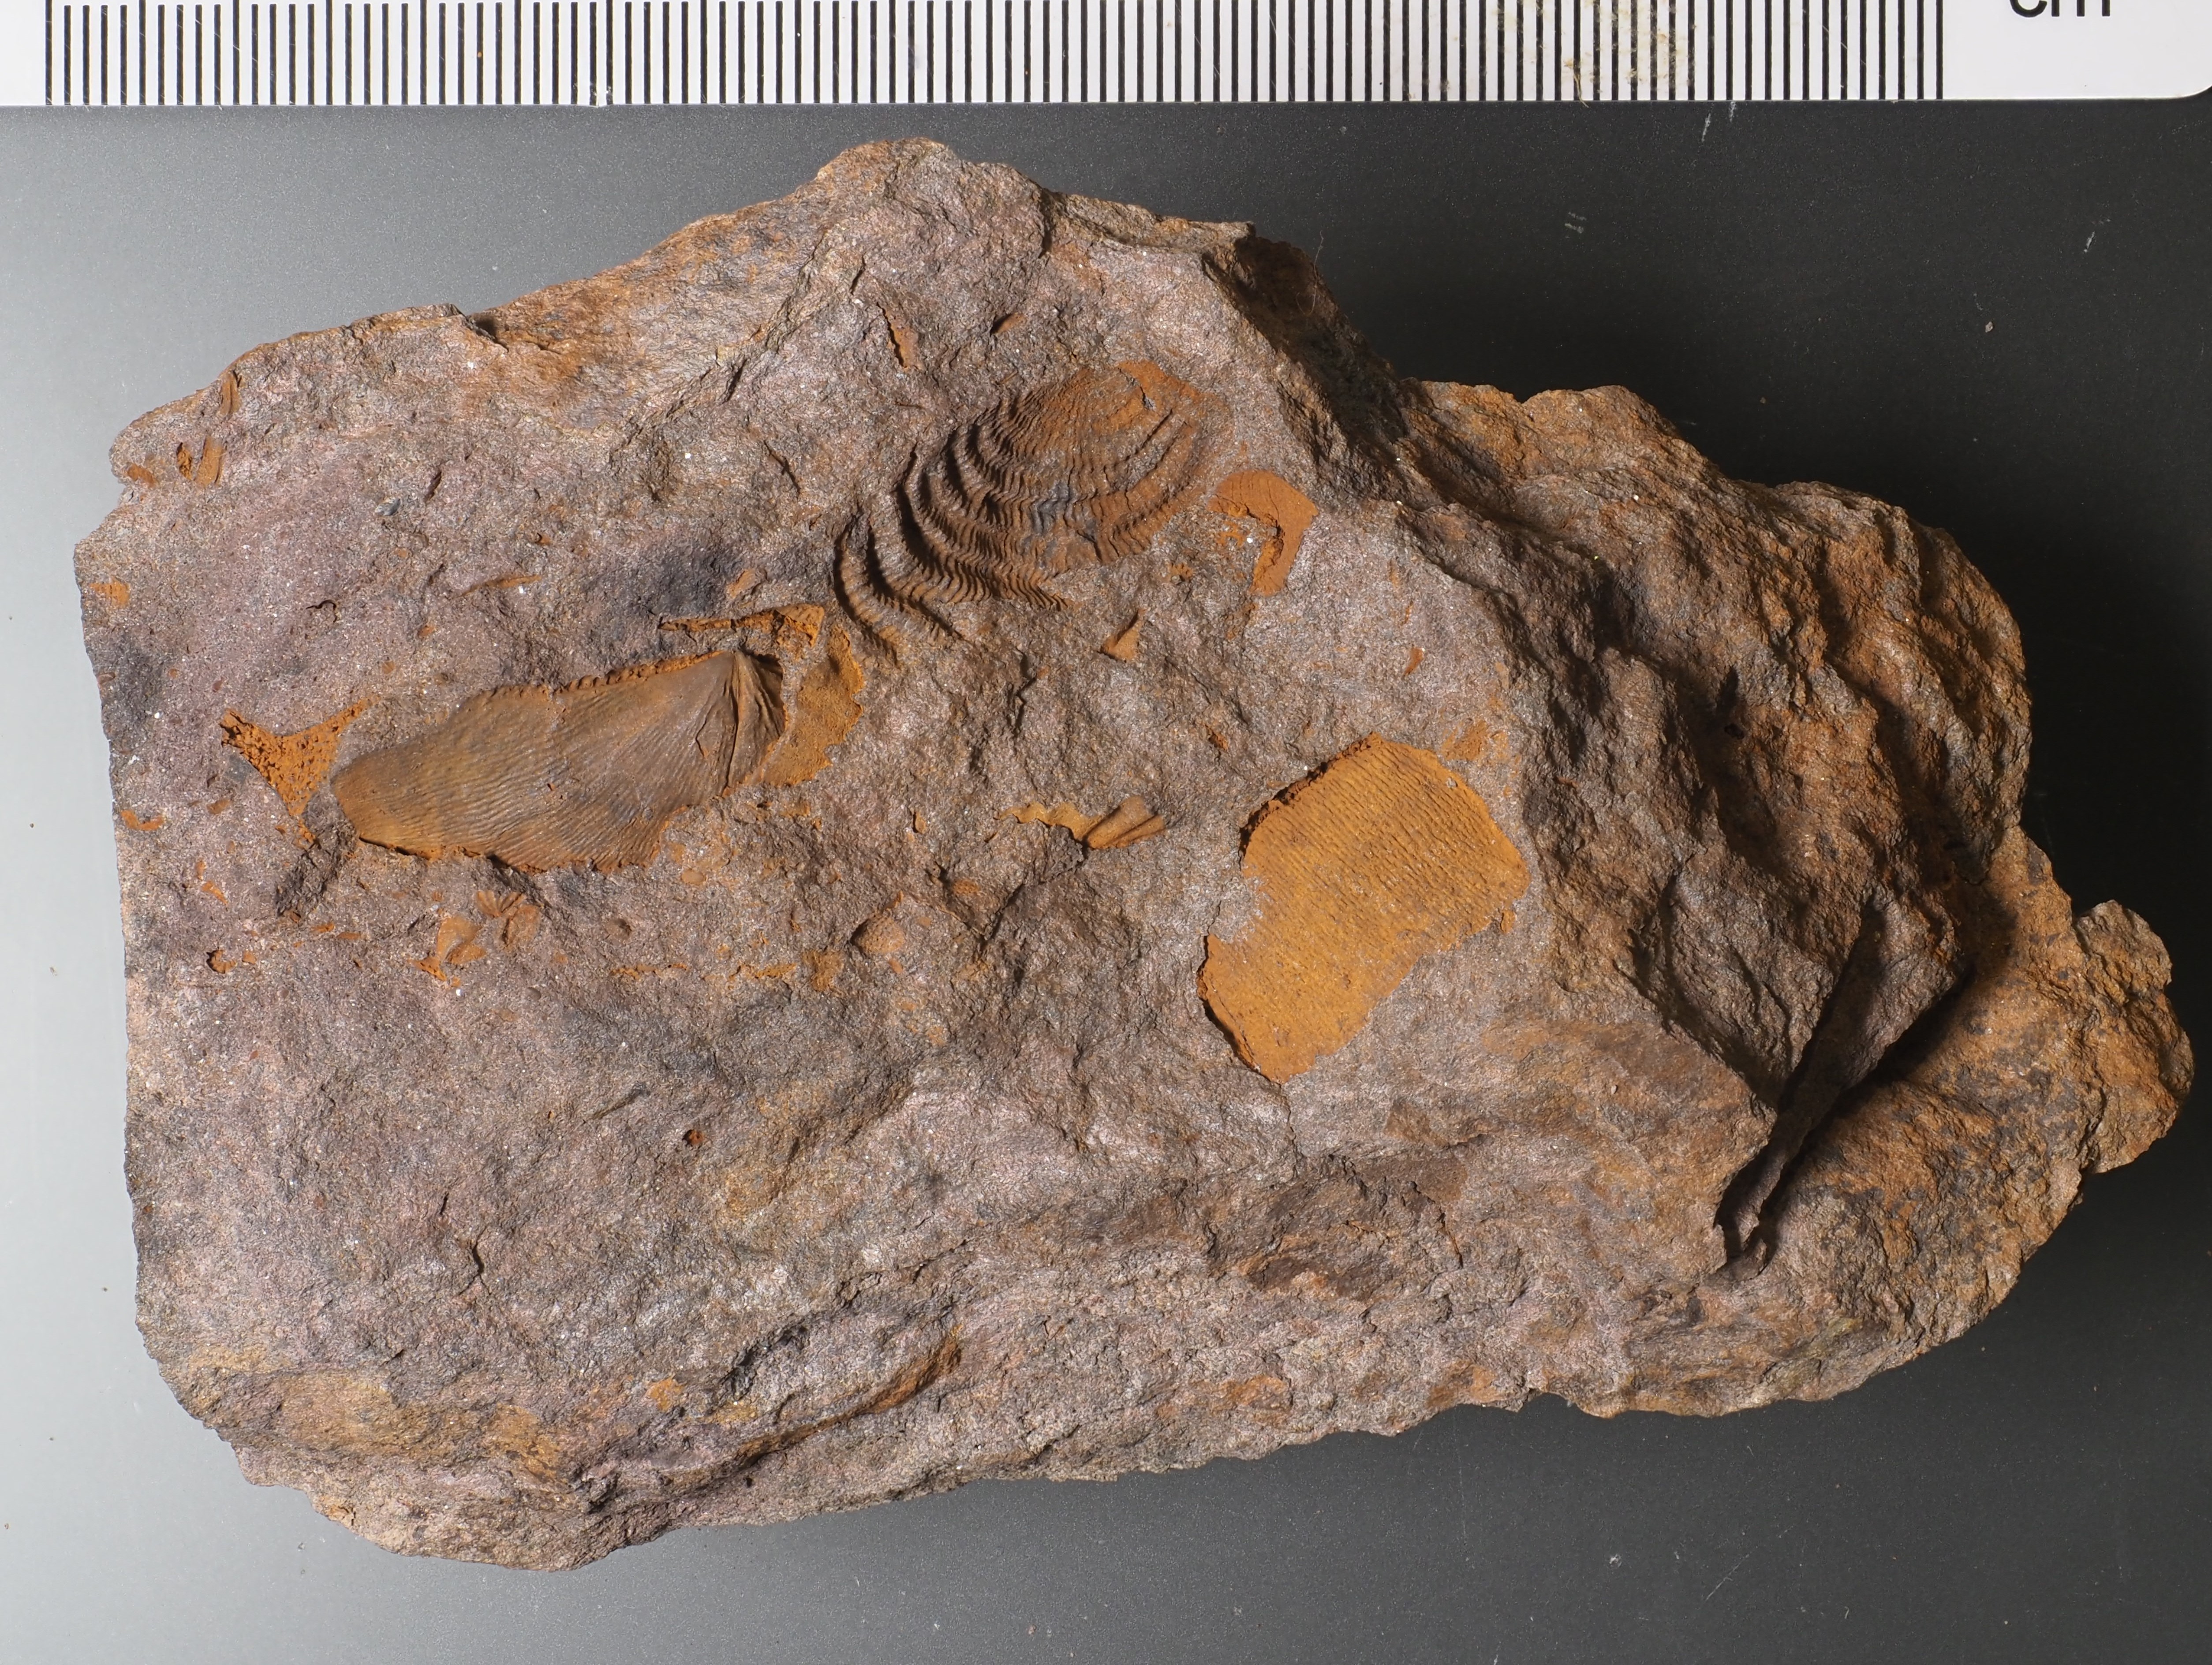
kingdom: Animalia
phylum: Brachiopoda
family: Strophomenidae
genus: Leptaena
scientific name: Leptaena rhomboidalis
